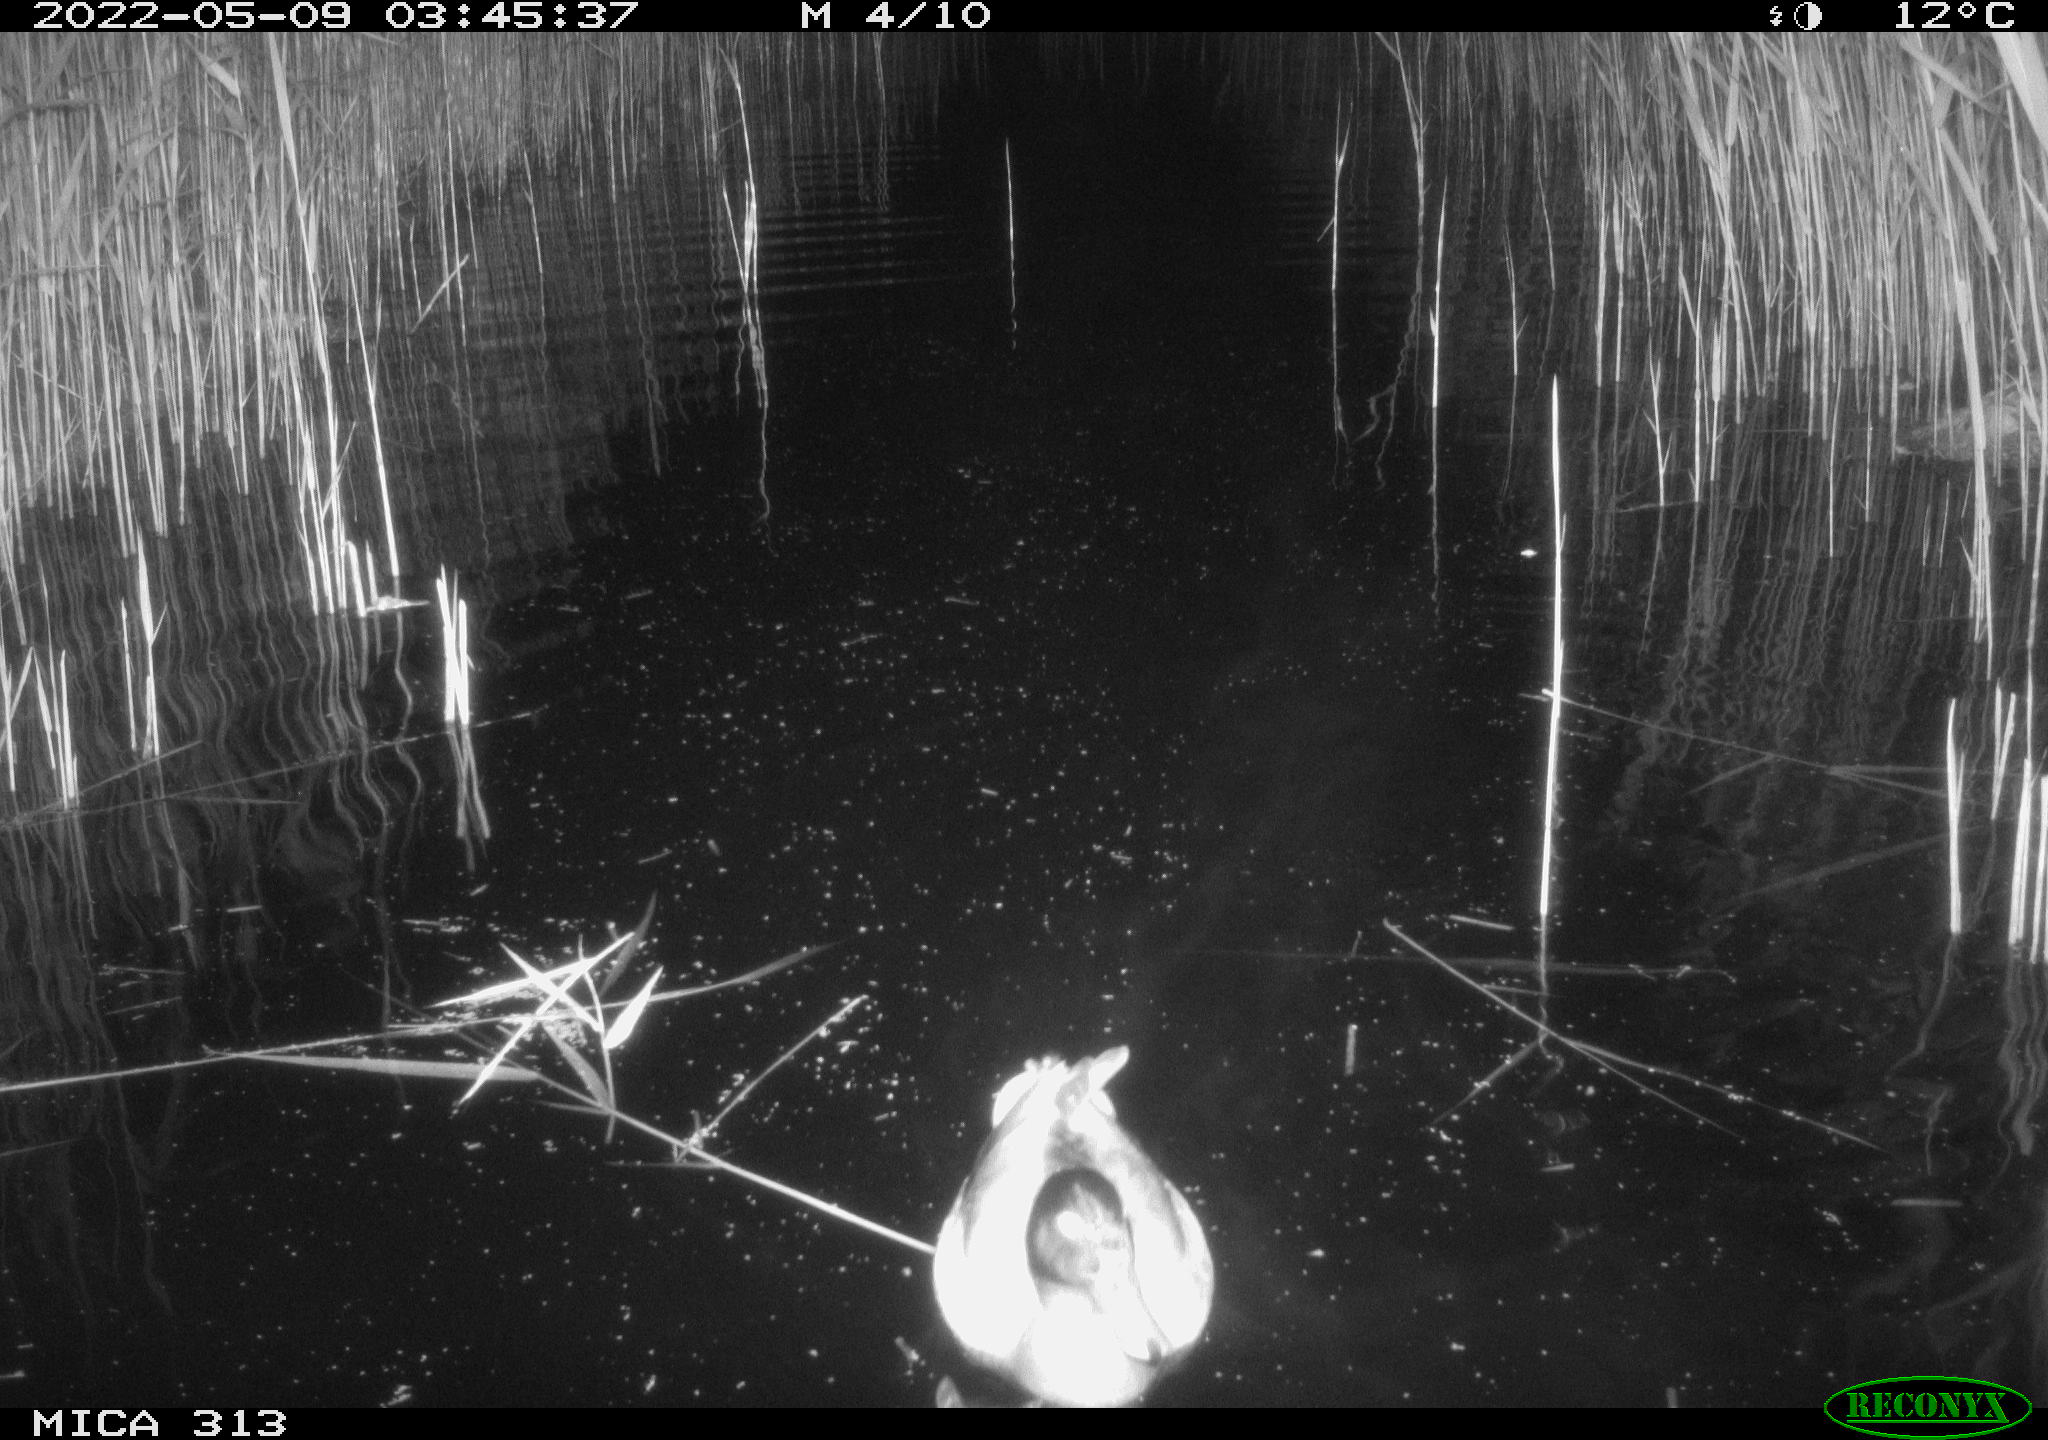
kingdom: Animalia
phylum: Chordata
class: Aves
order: Gruiformes
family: Rallidae
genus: Gallinula
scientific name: Gallinula chloropus
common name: Common moorhen
